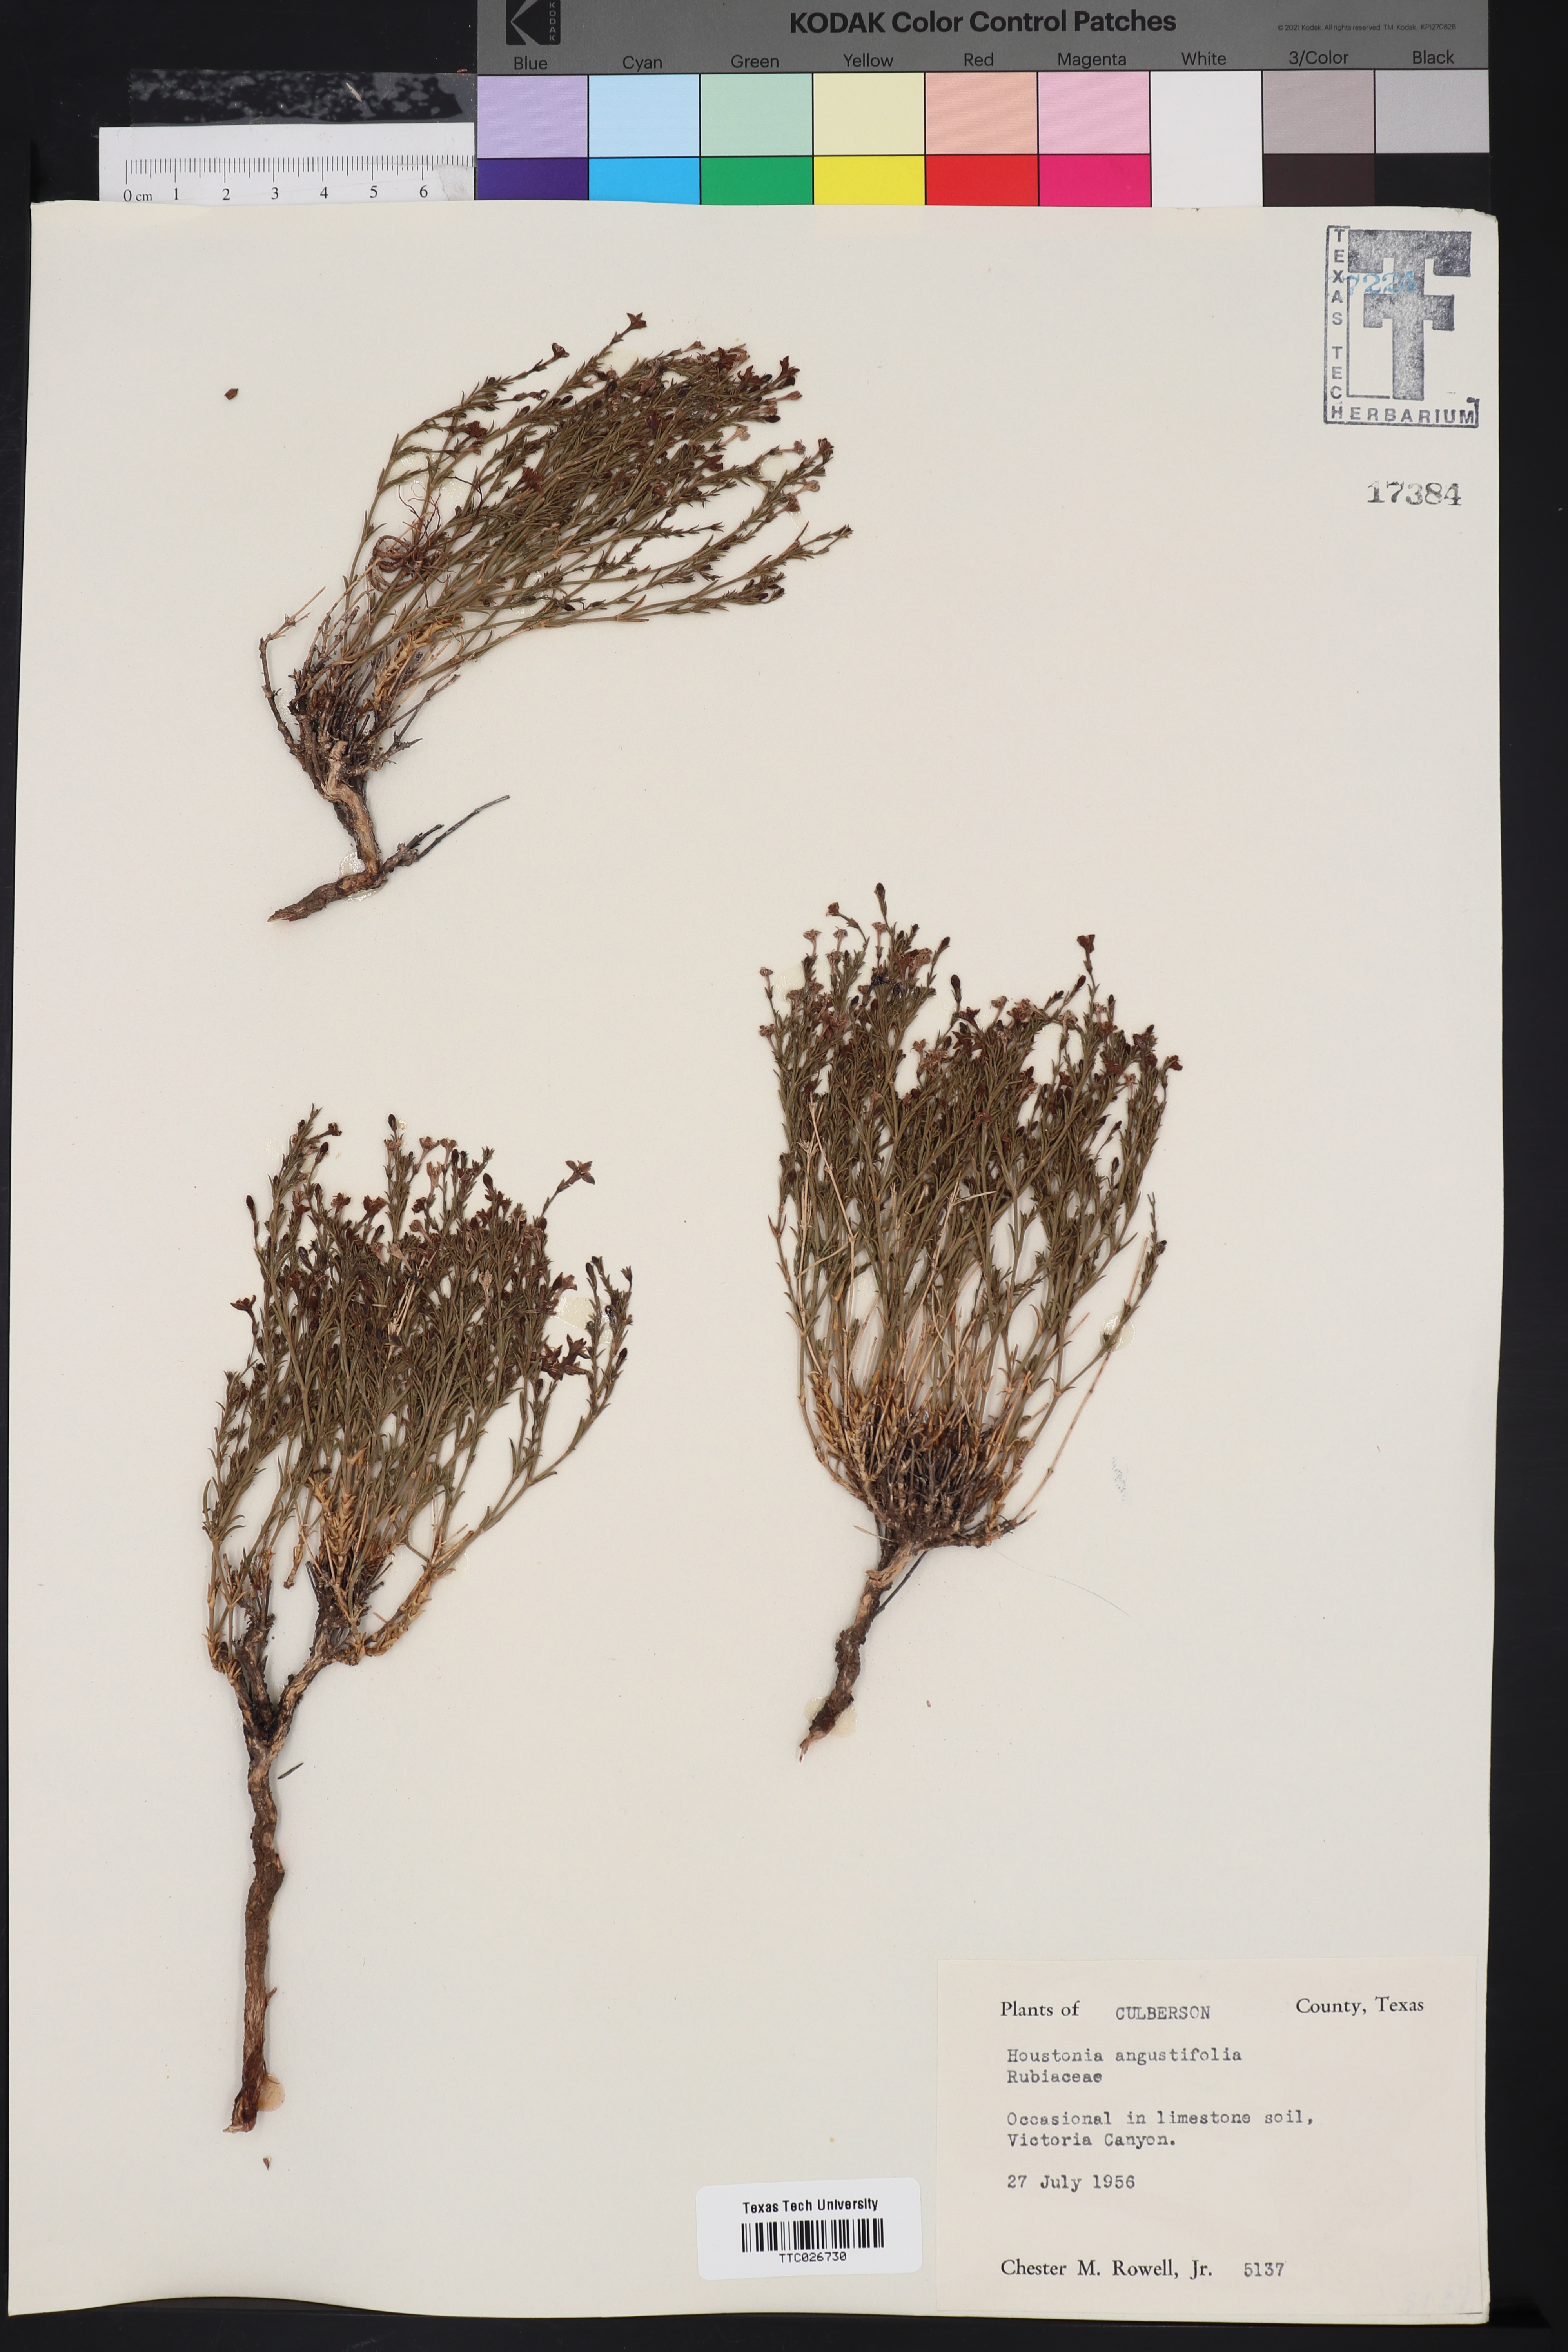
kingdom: Plantae
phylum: Tracheophyta
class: Magnoliopsida
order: Gentianales
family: Rubiaceae
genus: Stenaria
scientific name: Stenaria nigricans
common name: Diamondflowers
